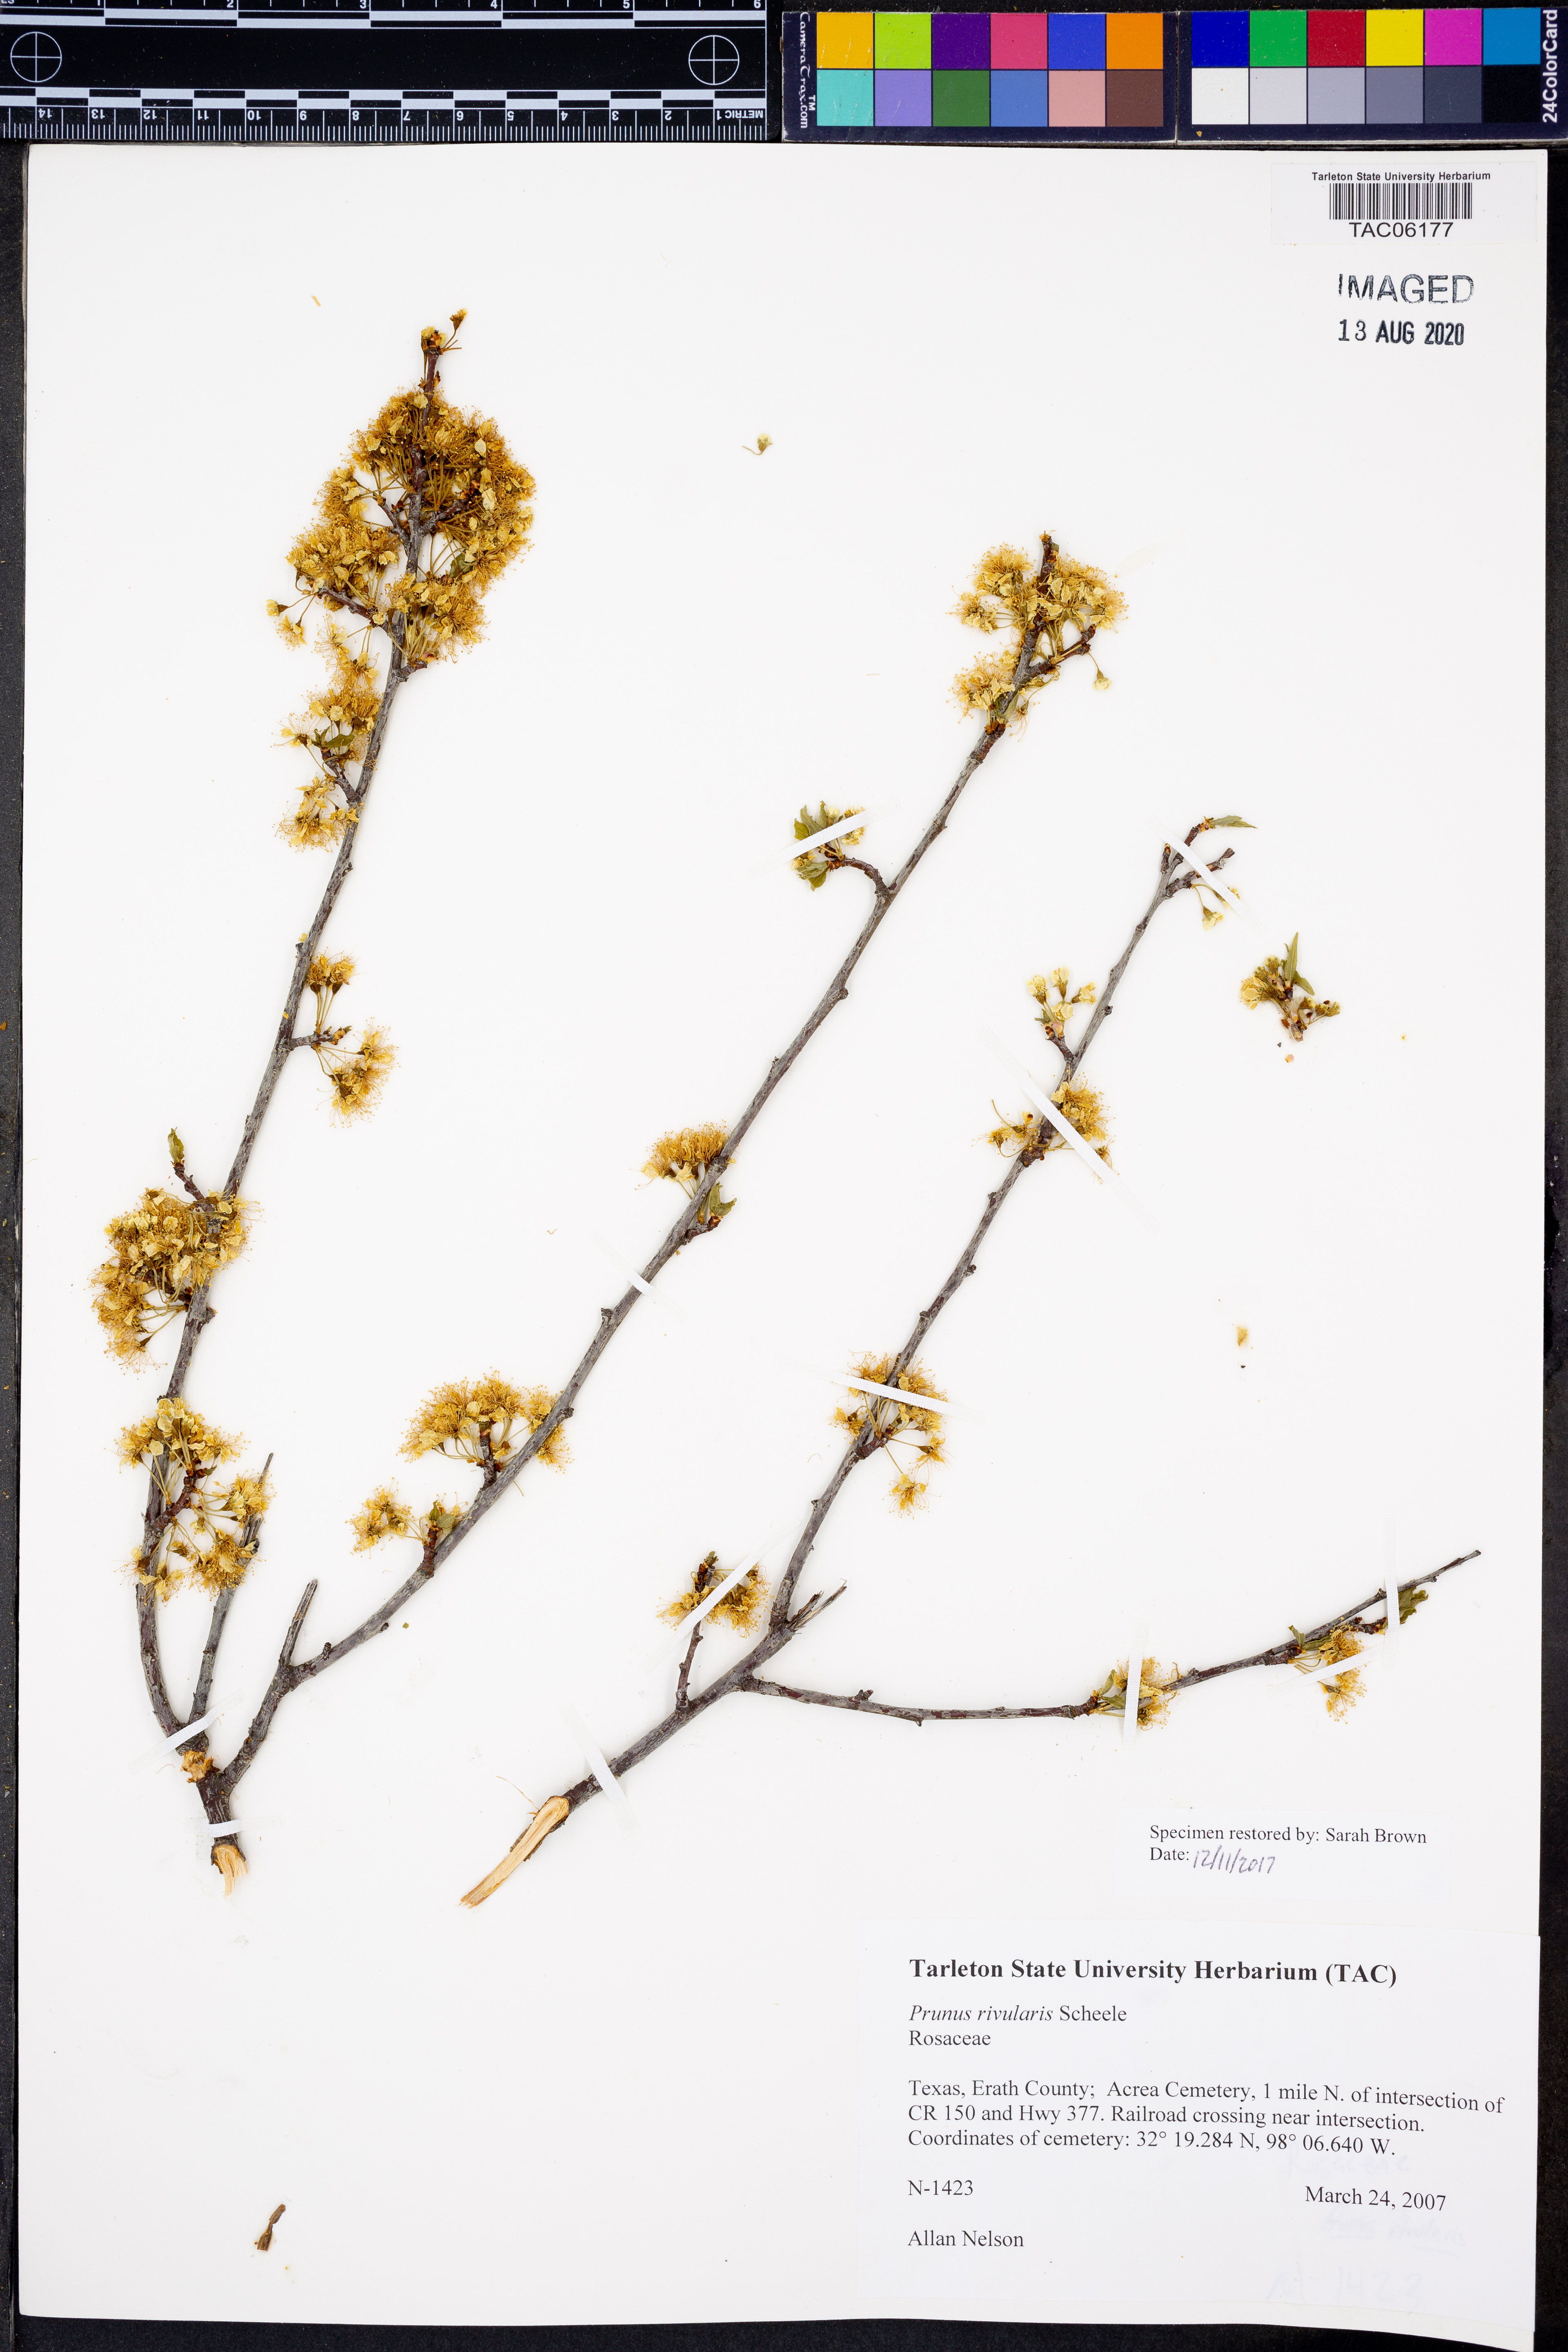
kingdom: Plantae
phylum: Tracheophyta
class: Magnoliopsida
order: Rosales
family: Rosaceae
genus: Prunus
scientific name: Prunus rivularis
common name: Creek plum
